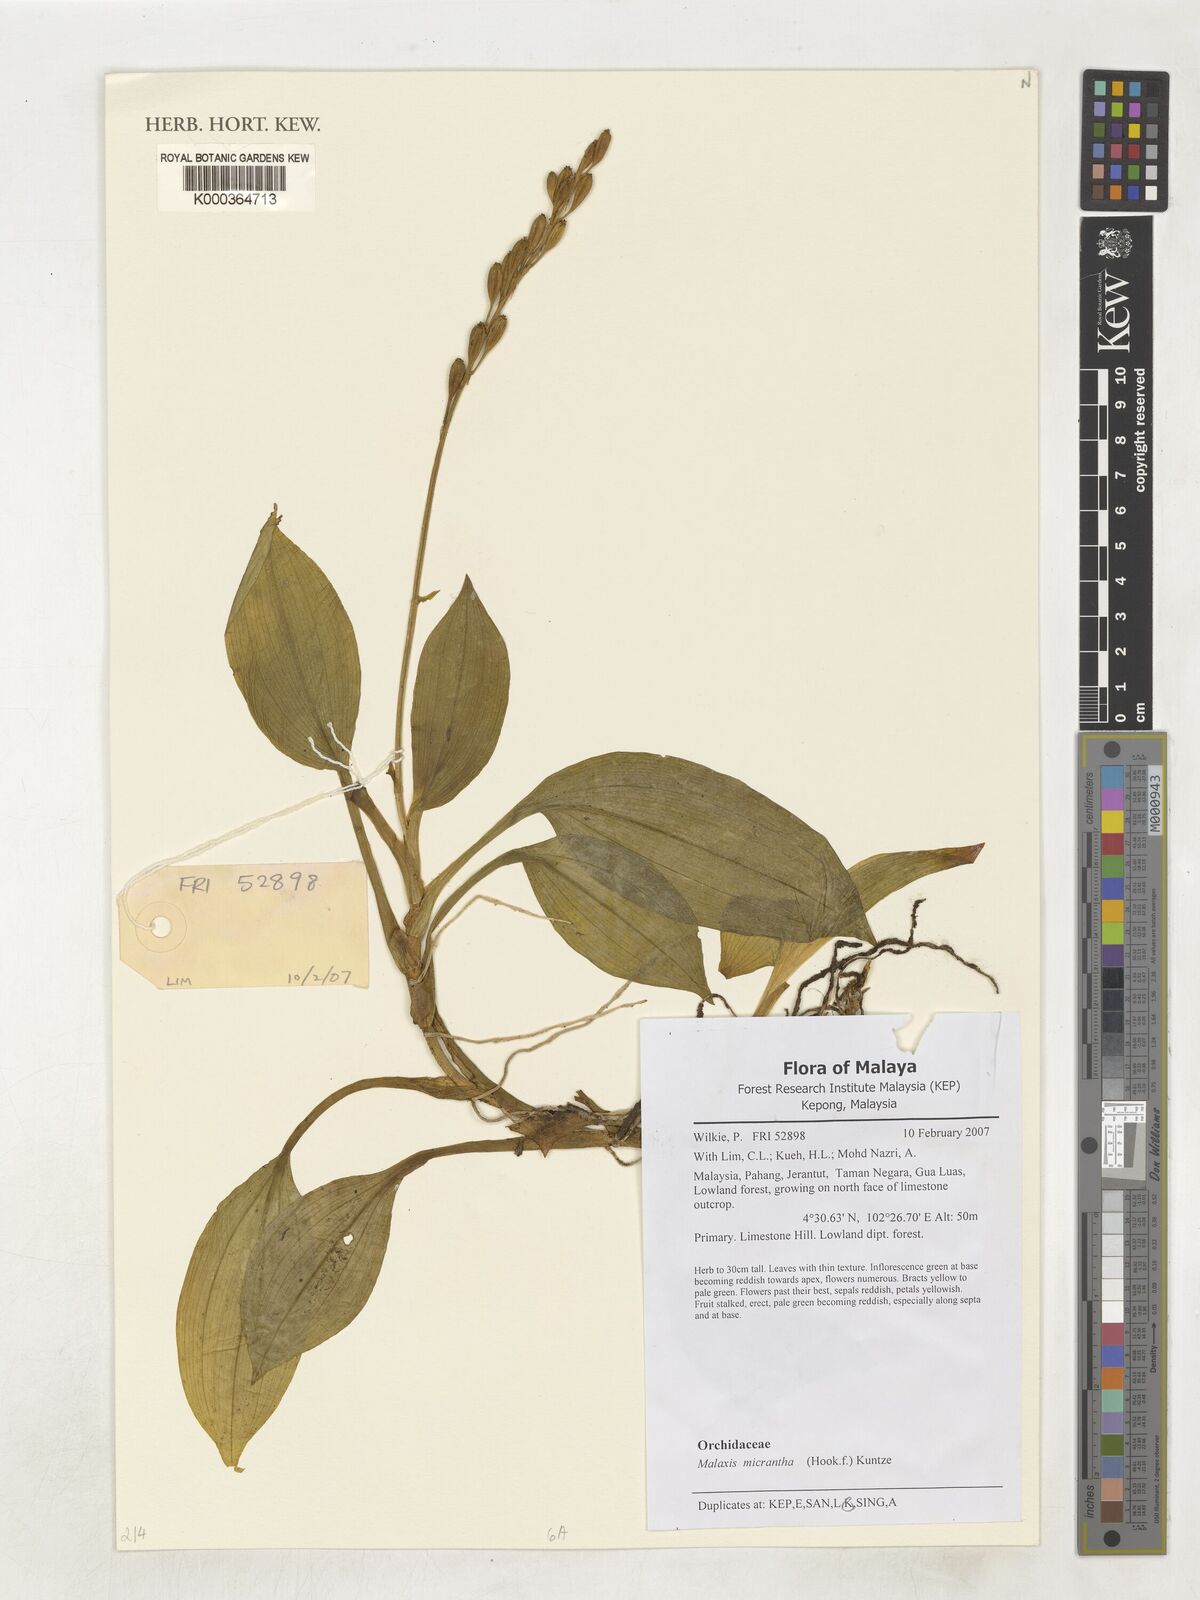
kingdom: Plantae
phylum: Tracheophyta
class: Liliopsida
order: Asparagales
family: Orchidaceae
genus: Crepidium
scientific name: Crepidium micranthum
